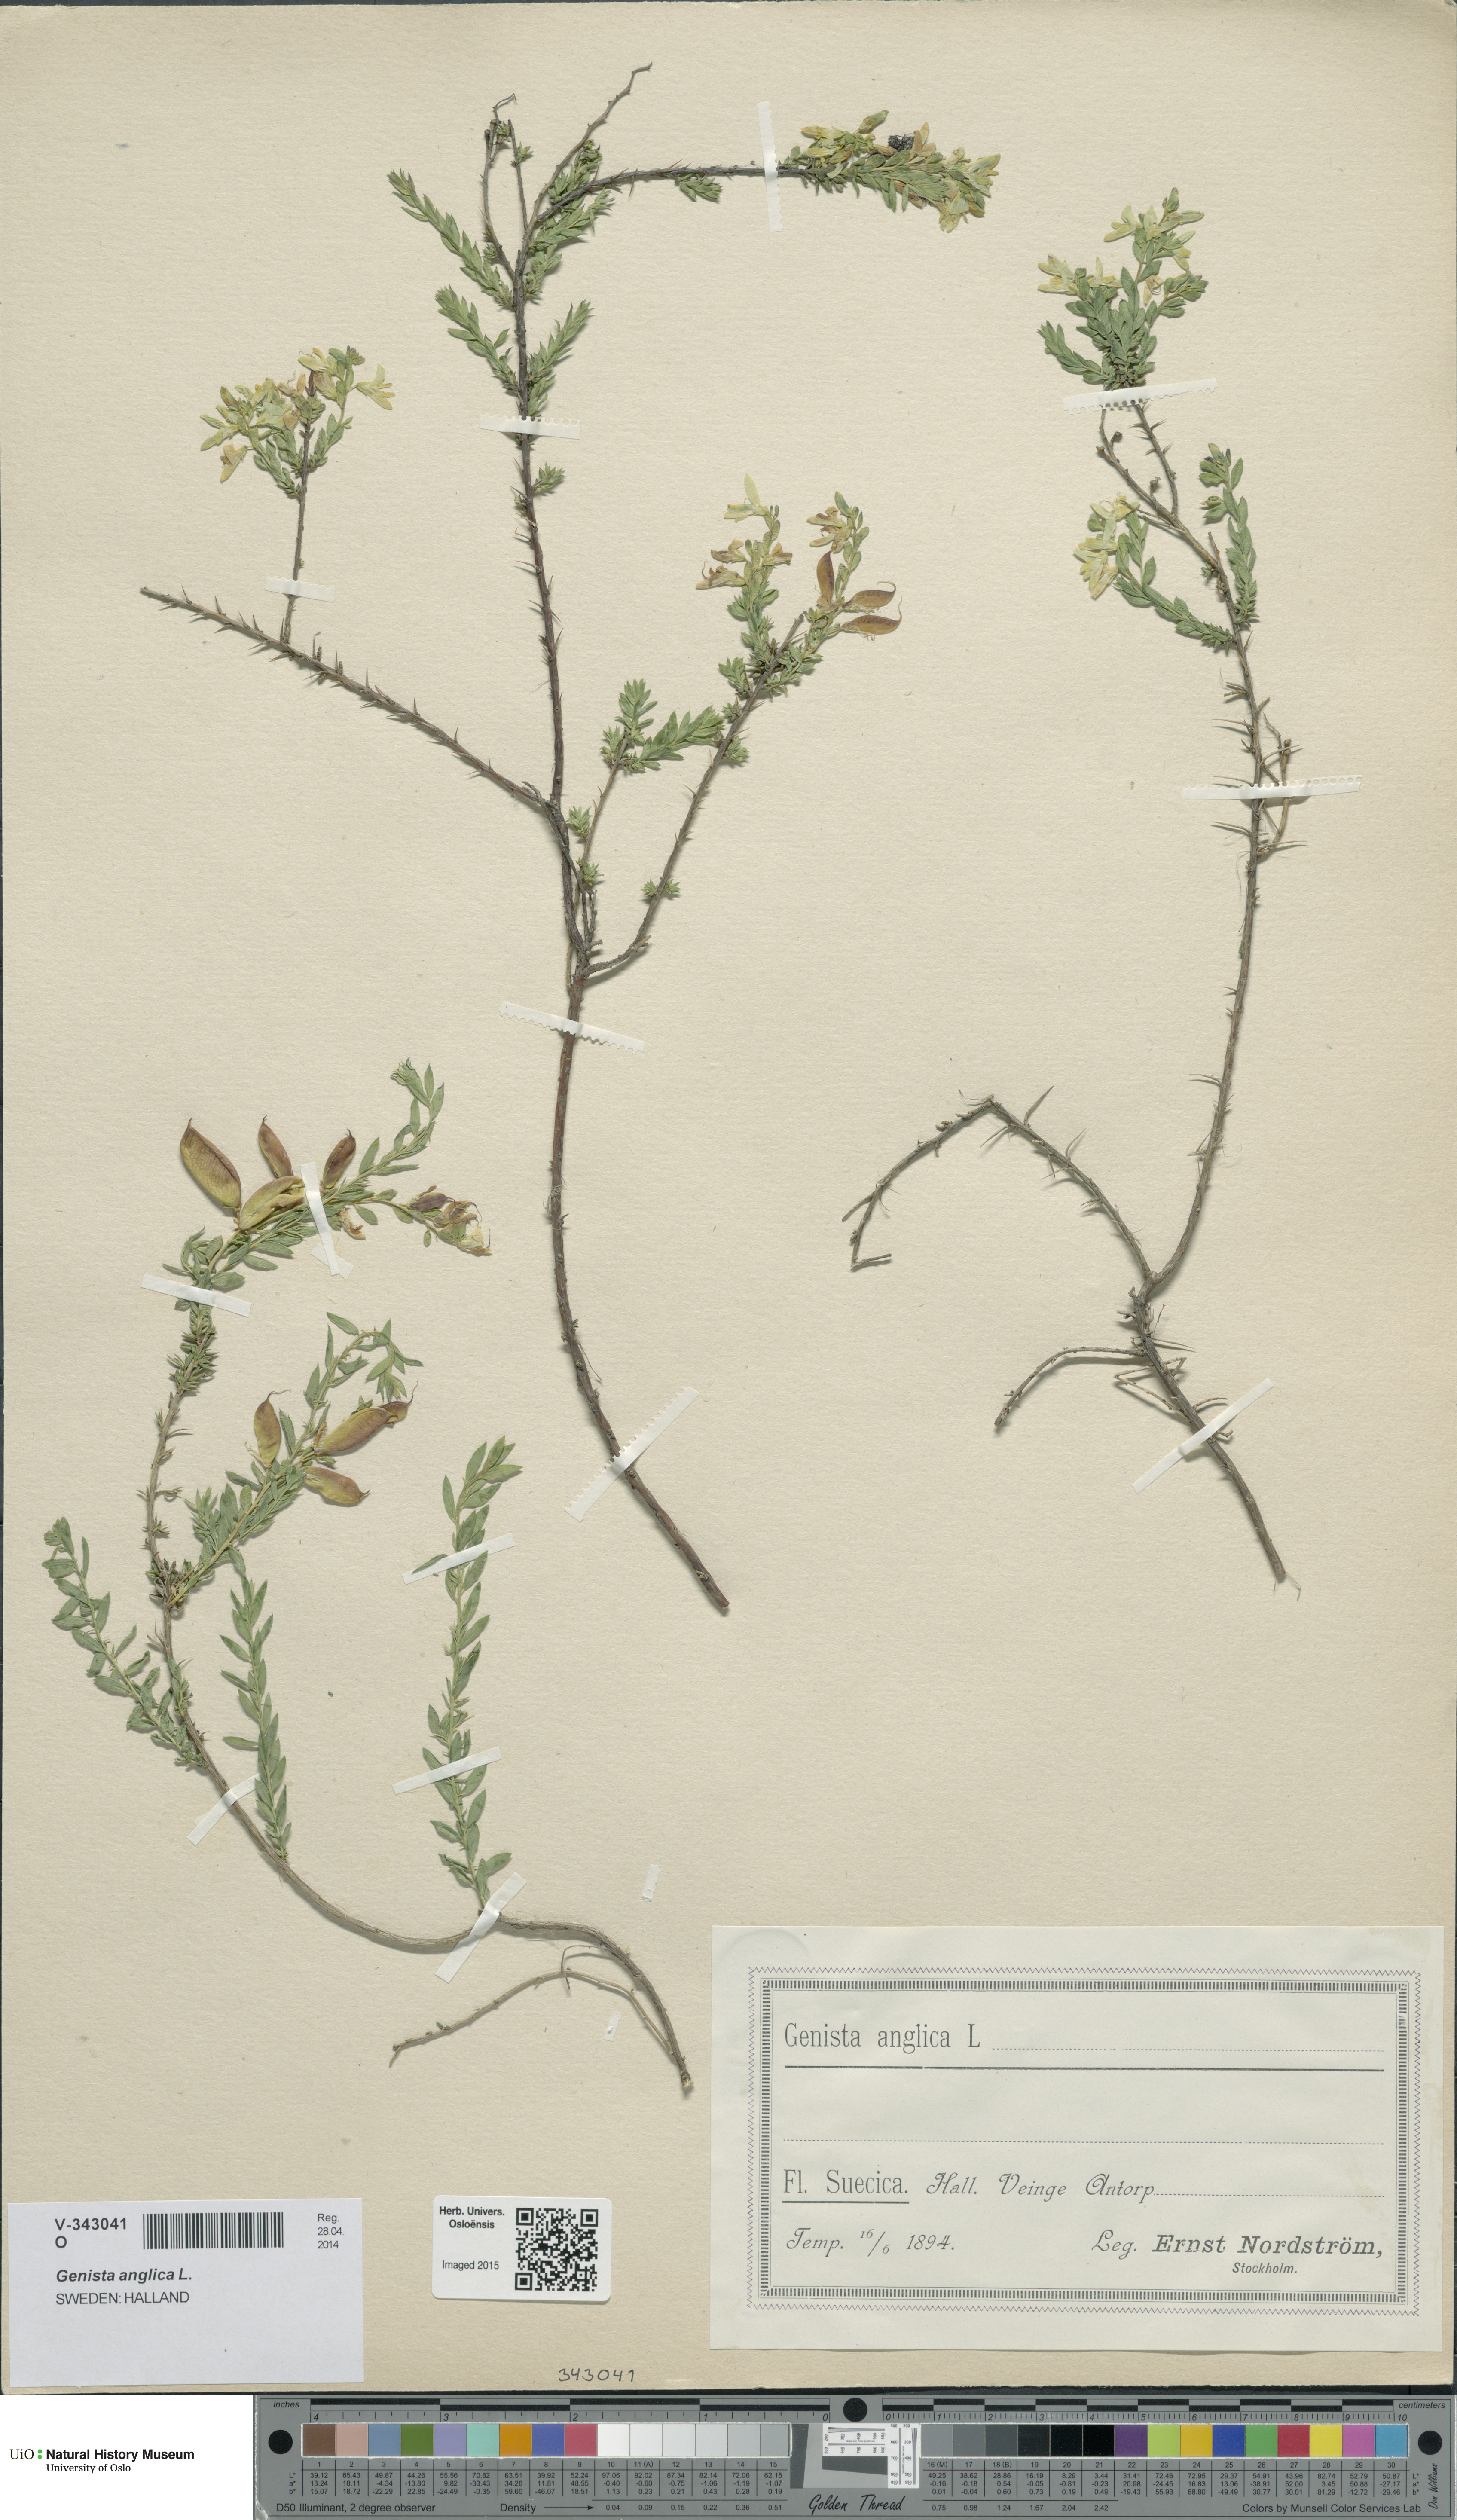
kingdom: Plantae
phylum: Tracheophyta
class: Magnoliopsida
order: Fabales
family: Fabaceae
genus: Genista
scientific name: Genista anglica
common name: Petty whin
